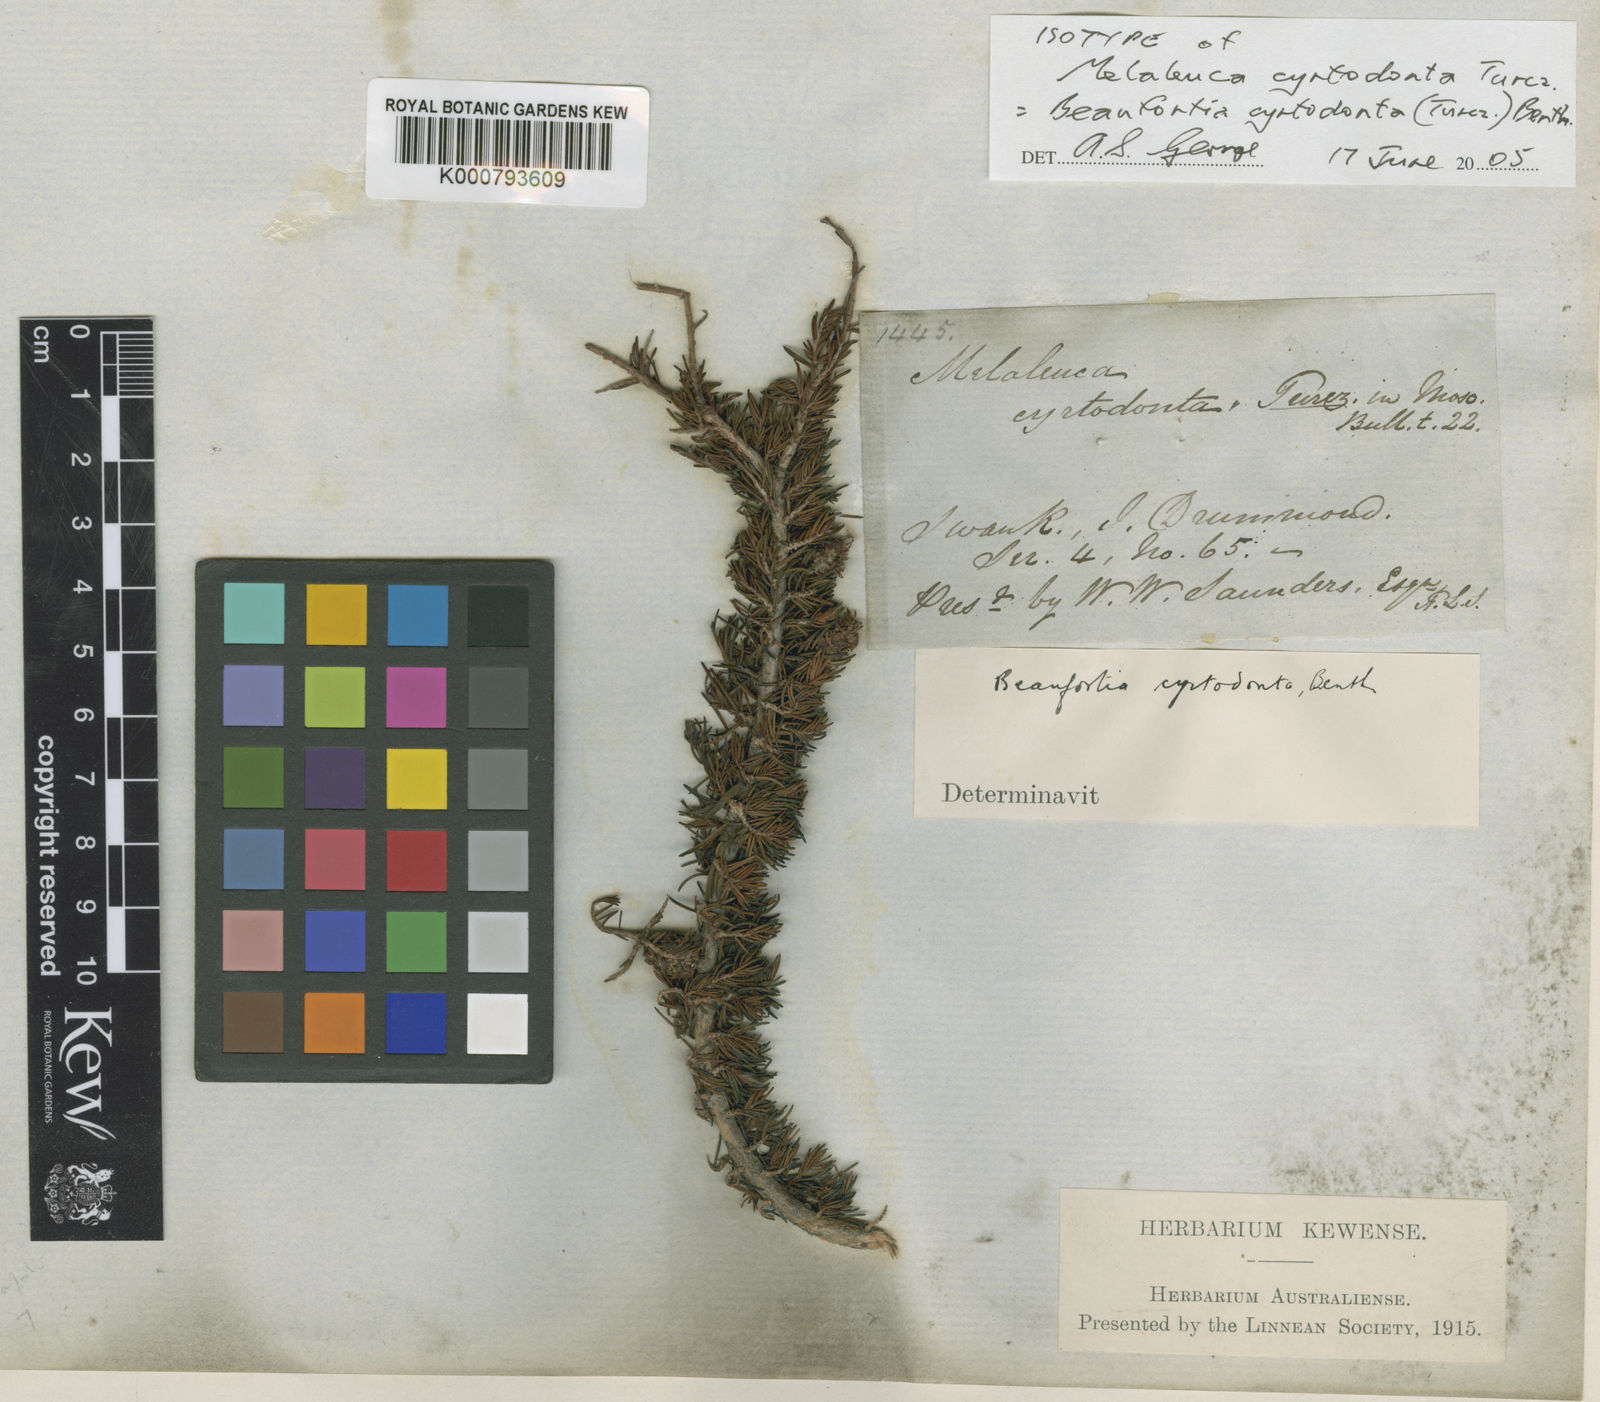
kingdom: Plantae
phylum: Tracheophyta
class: Magnoliopsida
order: Myrtales
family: Myrtaceae
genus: Melaleuca
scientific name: Melaleuca cyrtodonta
